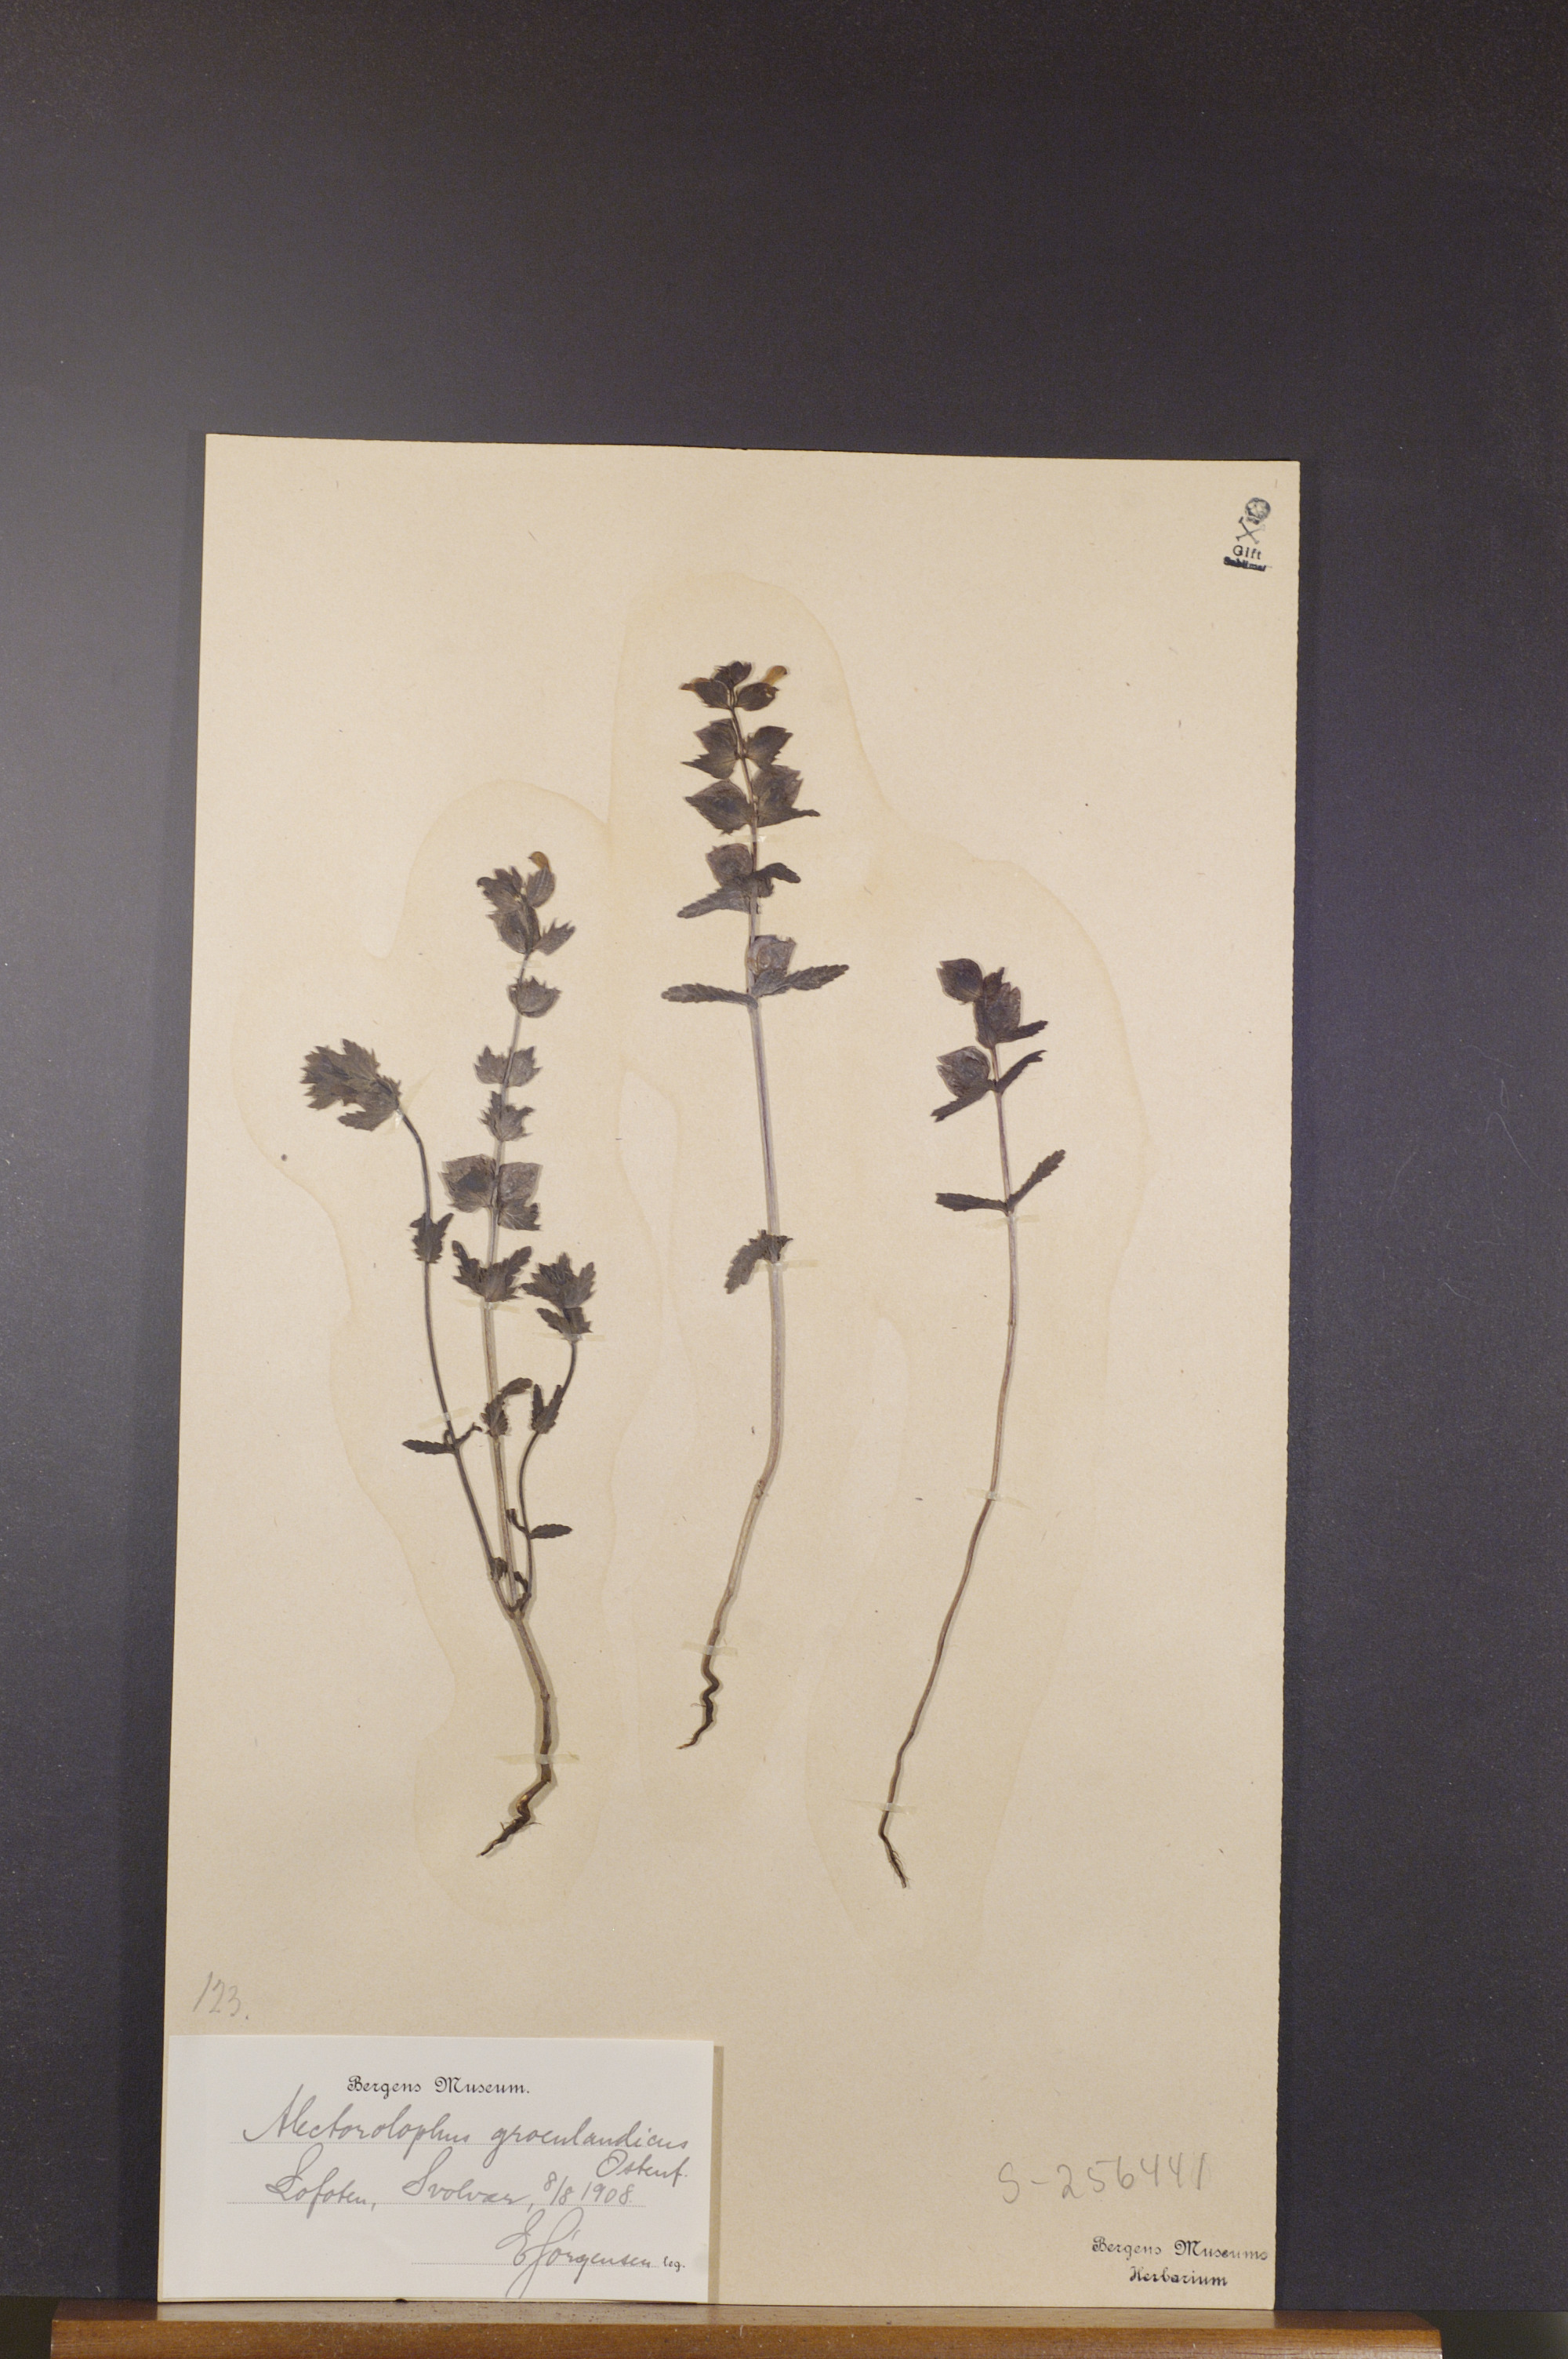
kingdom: Plantae
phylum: Tracheophyta
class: Magnoliopsida
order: Lamiales
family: Orobanchaceae
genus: Rhinanthus
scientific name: Rhinanthus groenlandicus
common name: Little yellow rattle
